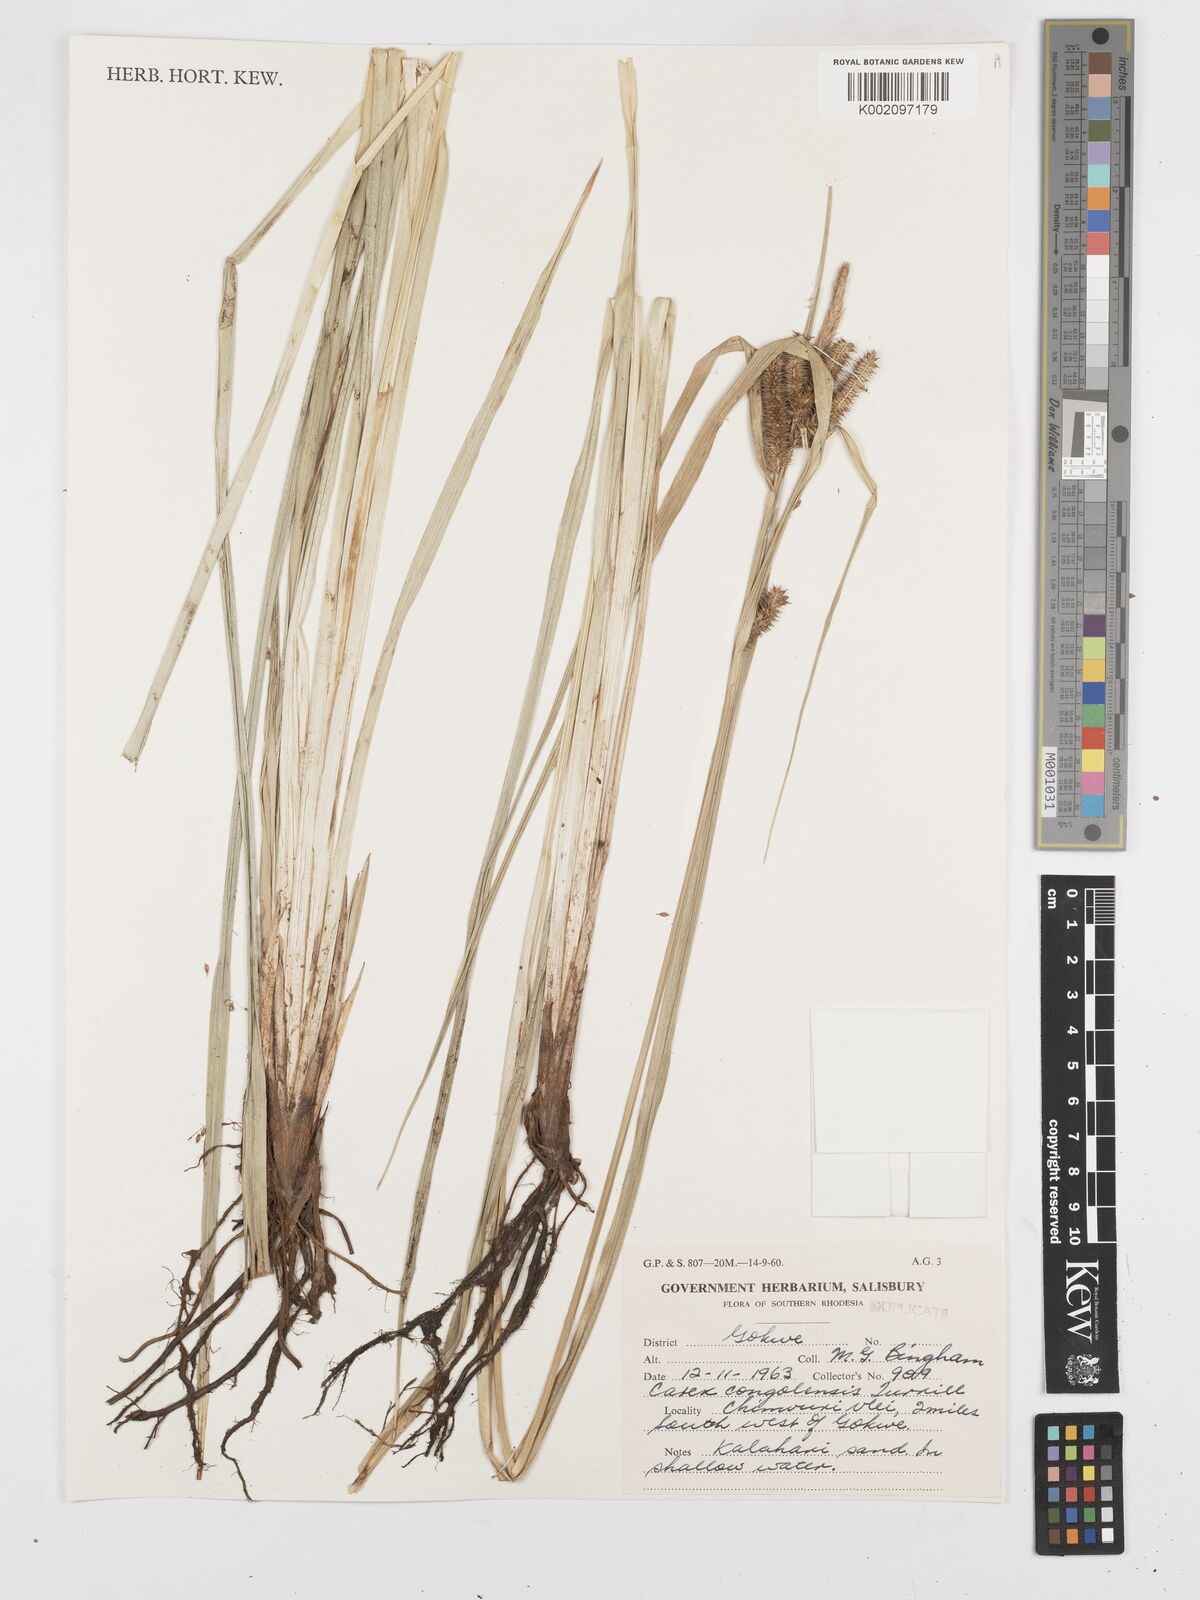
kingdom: Plantae
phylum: Tracheophyta
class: Liliopsida
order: Poales
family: Cyperaceae
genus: Carex
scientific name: Carex congolensis
